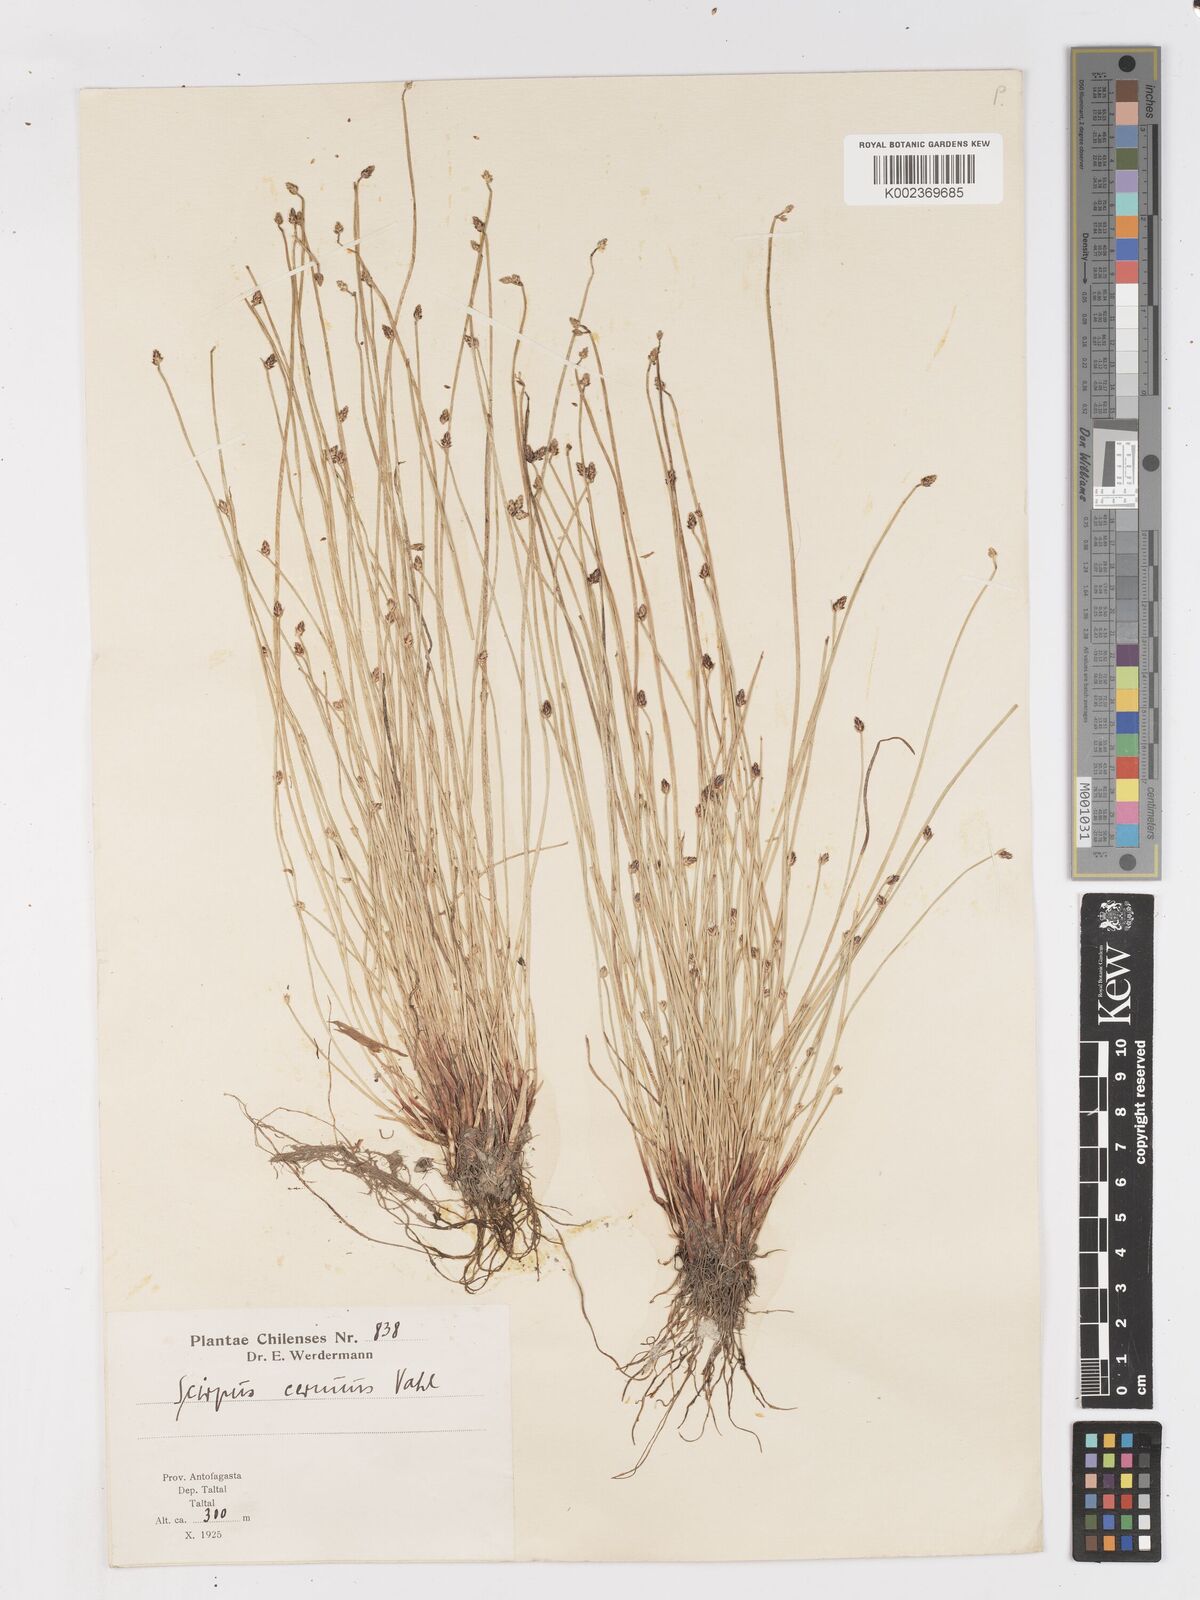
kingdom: Plantae
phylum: Tracheophyta
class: Liliopsida
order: Poales
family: Cyperaceae
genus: Isolepis
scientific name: Isolepis cernua
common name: Slender club-rush
